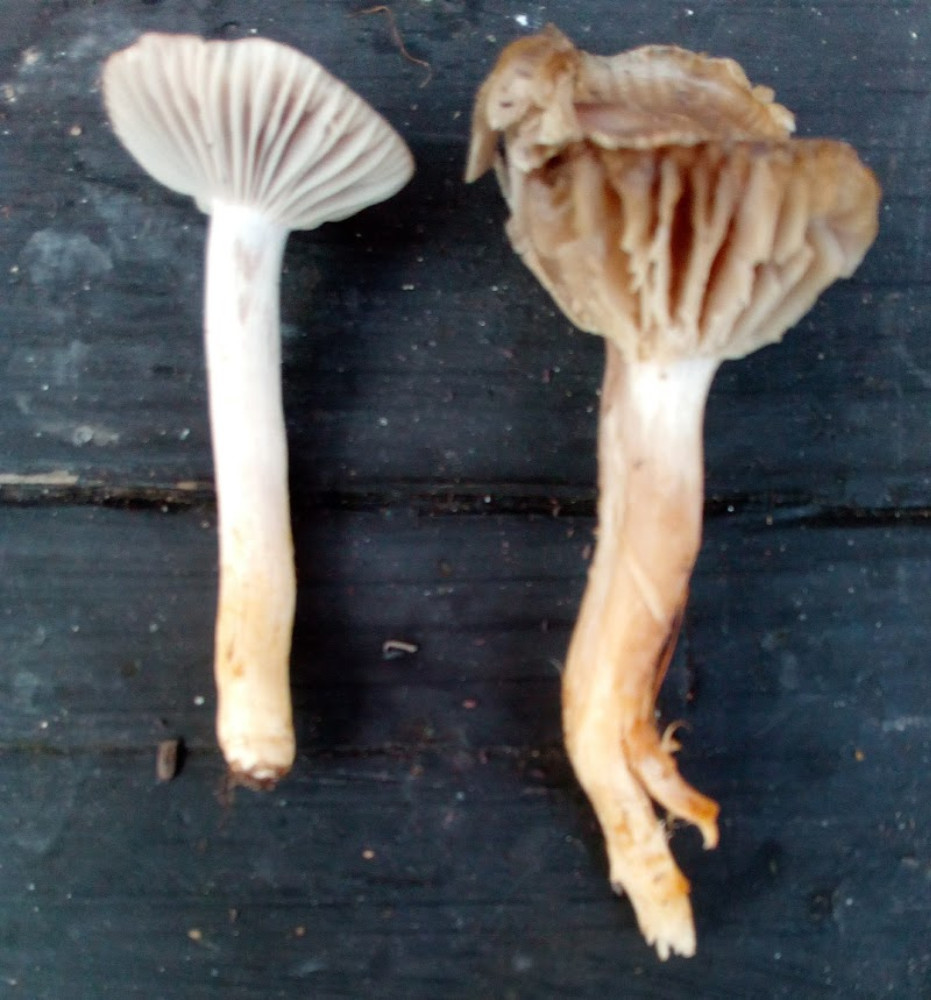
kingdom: Fungi
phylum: Basidiomycota
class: Agaricomycetes
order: Agaricales
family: Hygrophoraceae
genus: Cuphophyllus
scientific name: Cuphophyllus flavipes
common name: gulfodet vokshat
